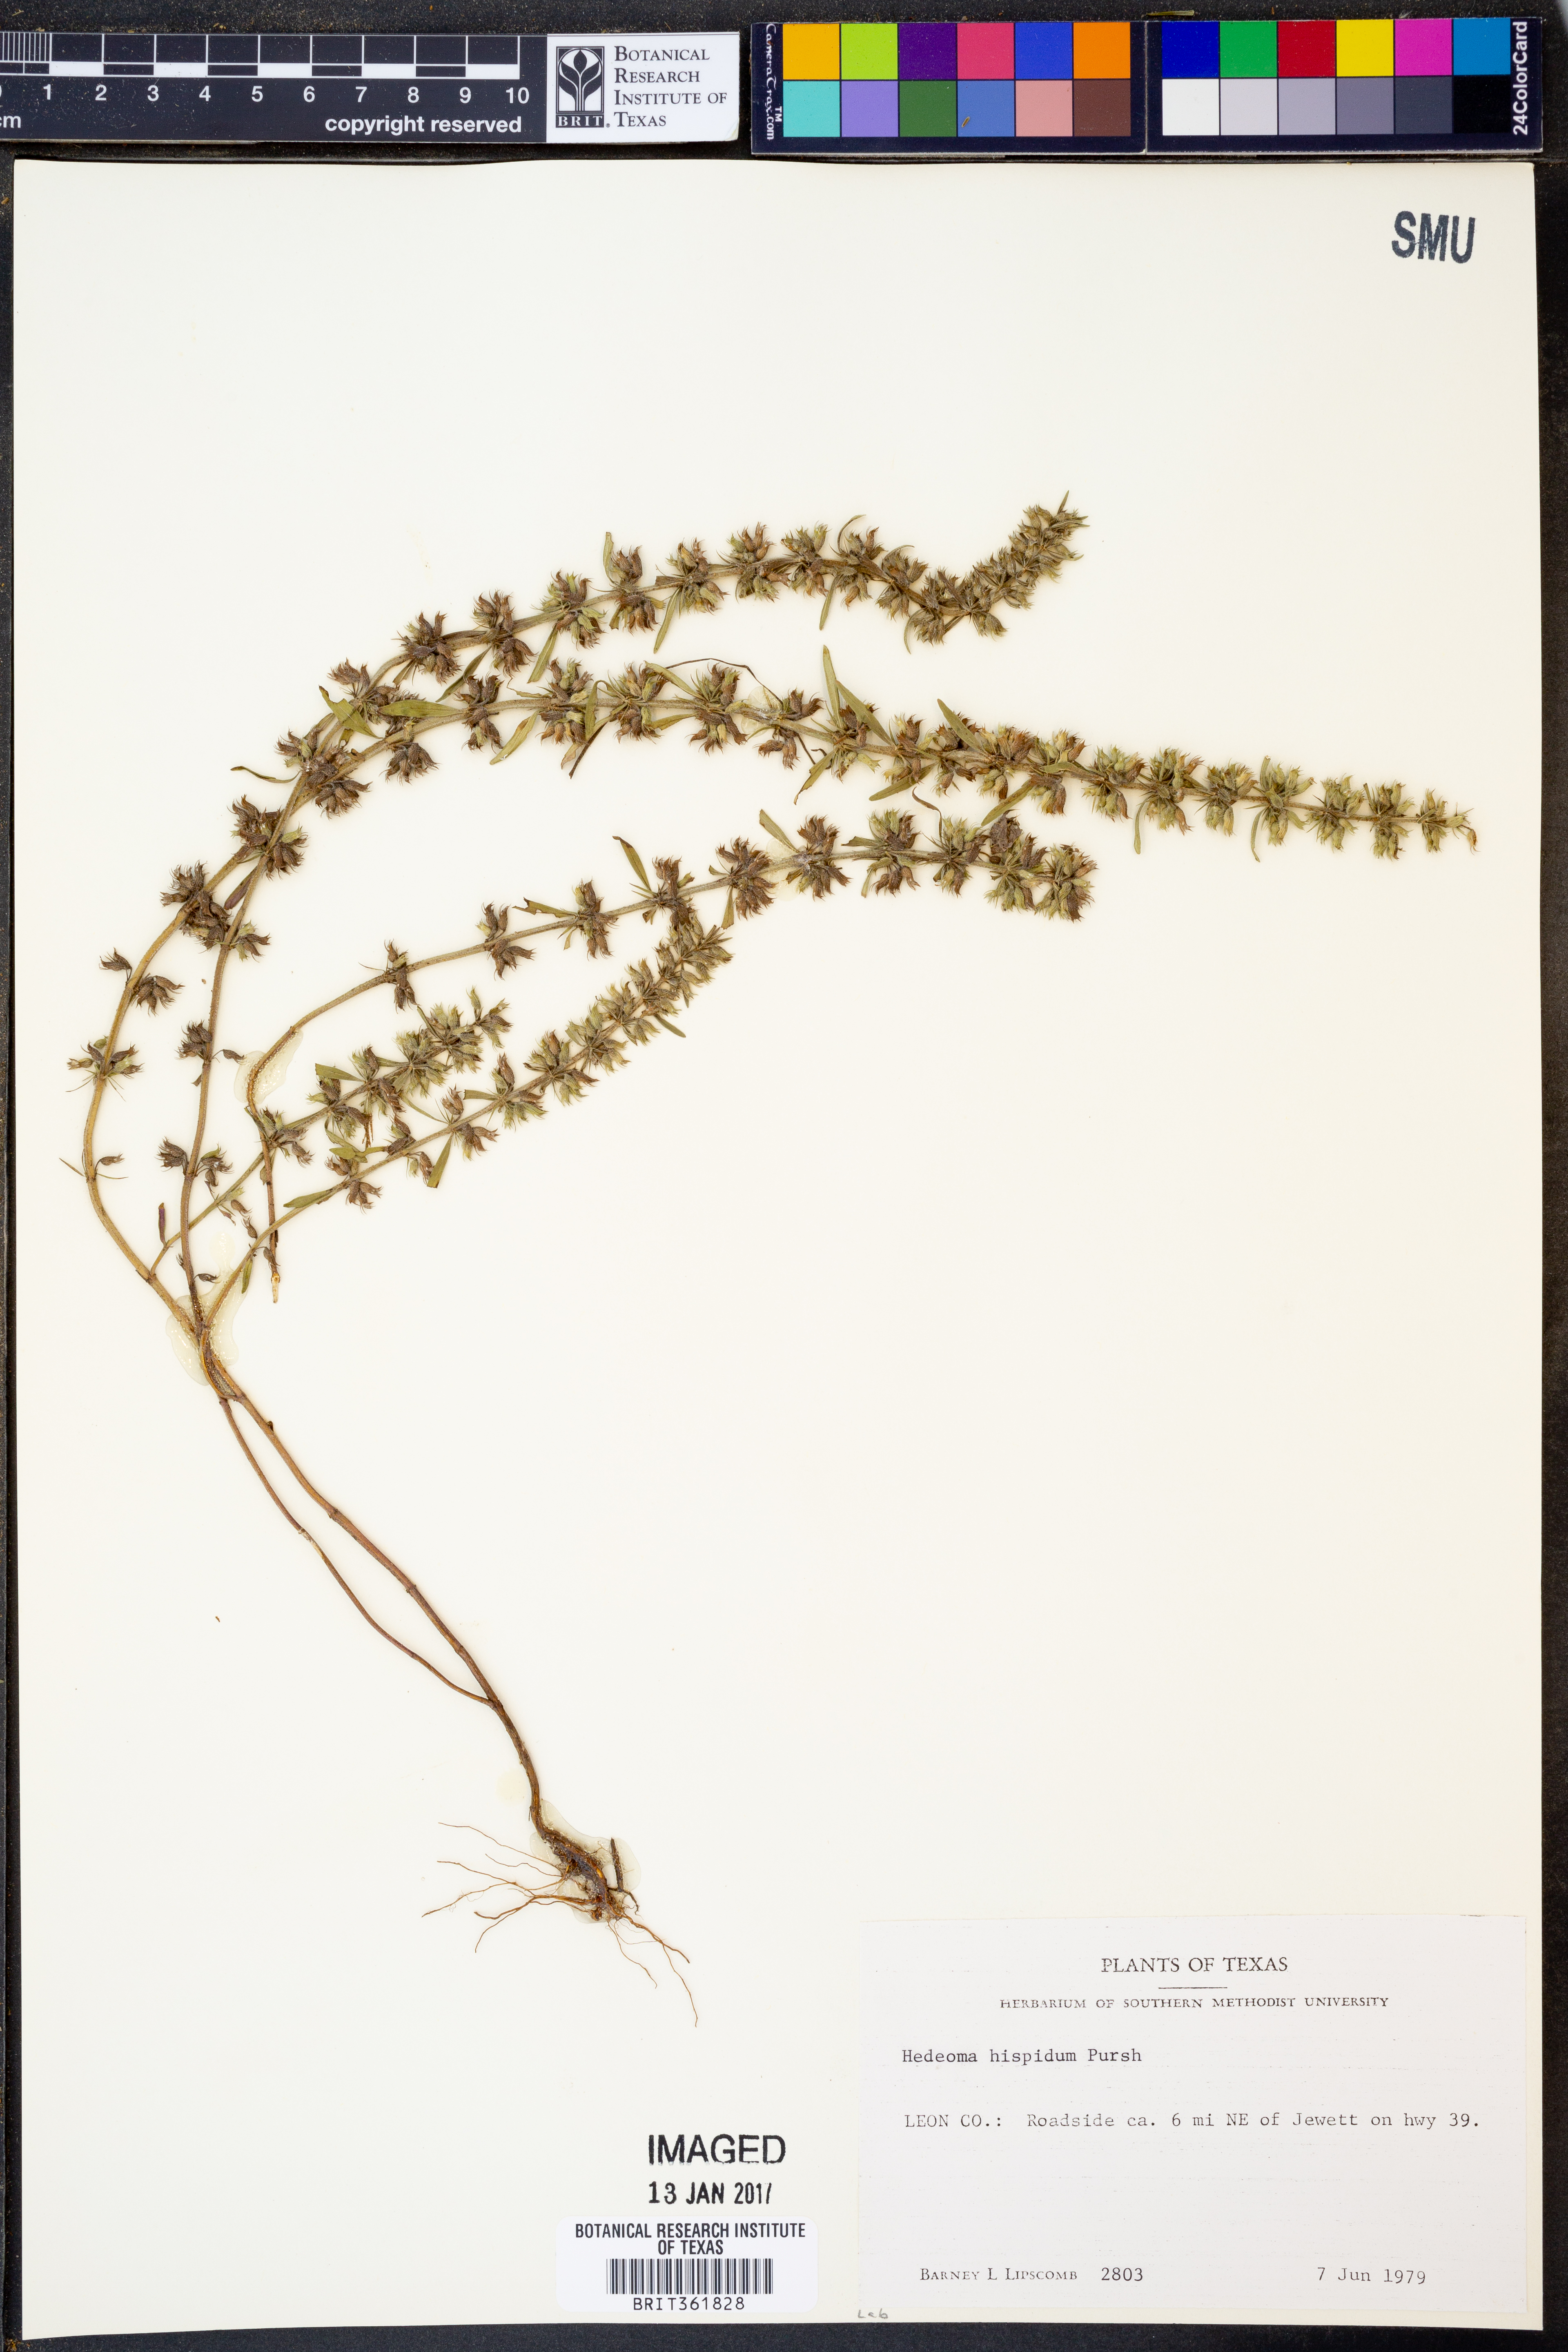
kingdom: Plantae
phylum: Tracheophyta
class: Magnoliopsida
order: Lamiales
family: Lamiaceae
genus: Hedeoma
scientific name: Hedeoma hispida
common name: Mock pennyroyal
